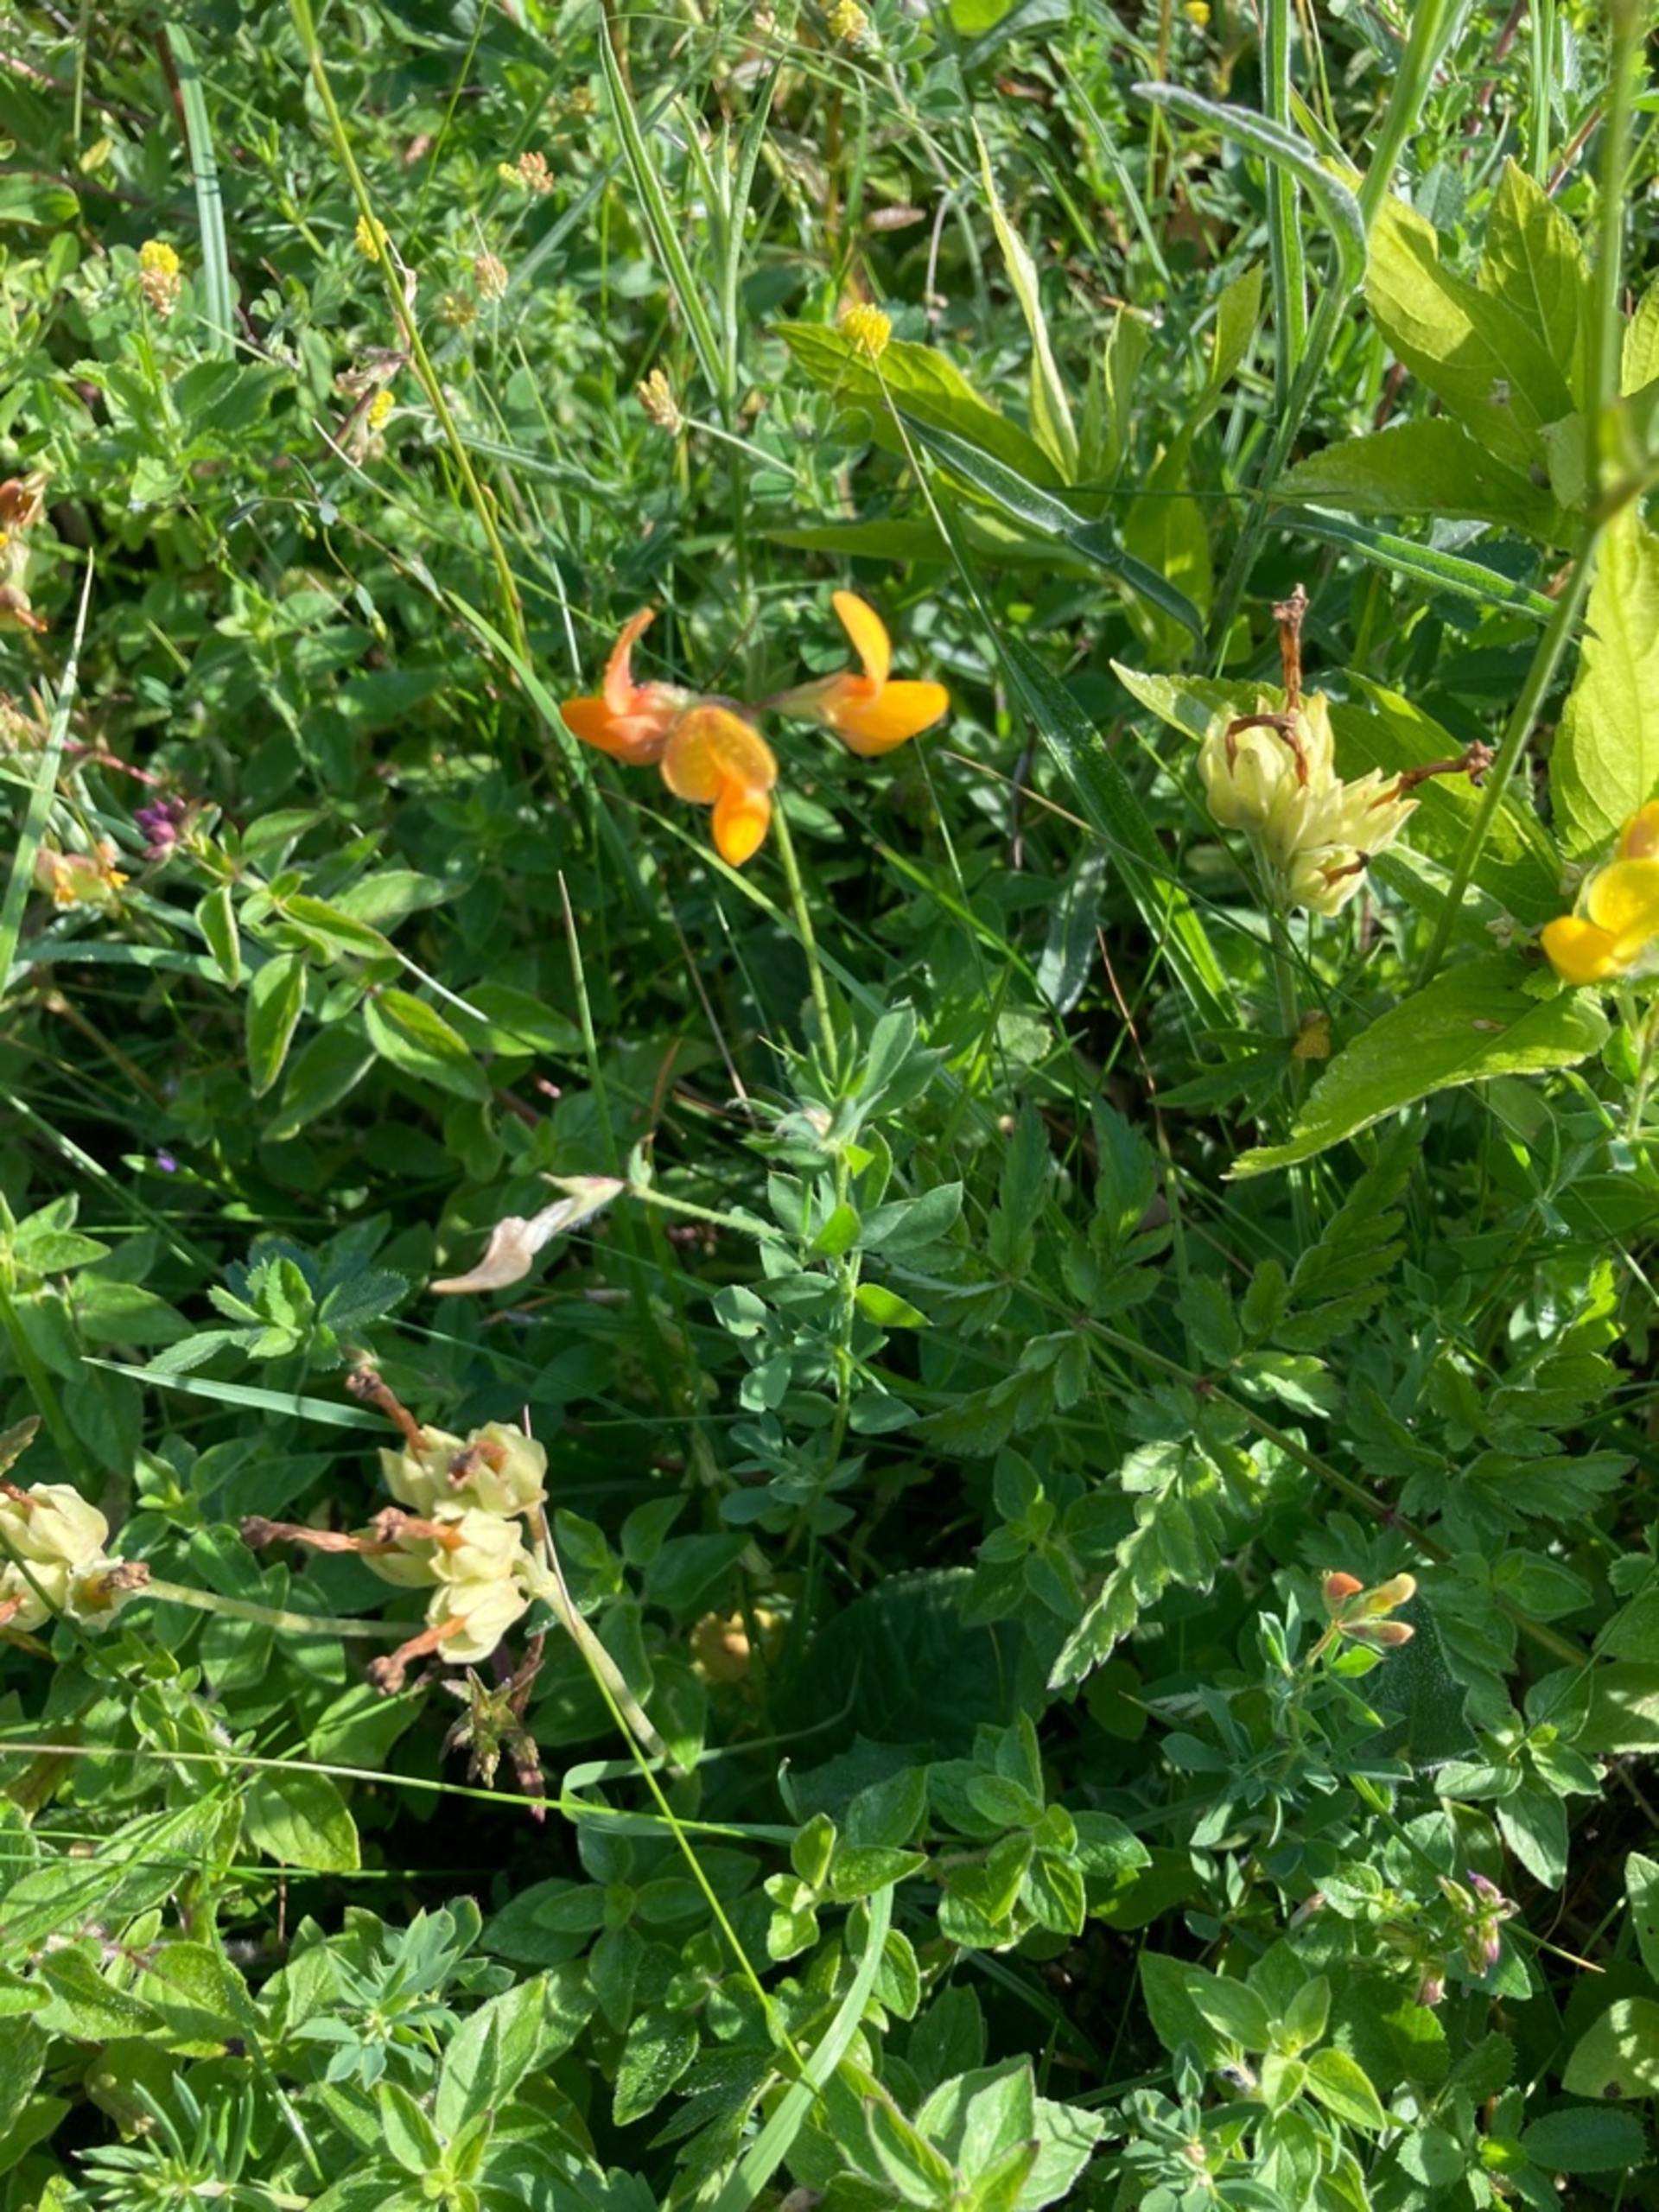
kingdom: Plantae
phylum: Tracheophyta
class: Magnoliopsida
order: Fabales
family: Fabaceae
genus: Lotus
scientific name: Lotus corniculatus
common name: Almindelig kællingetand
